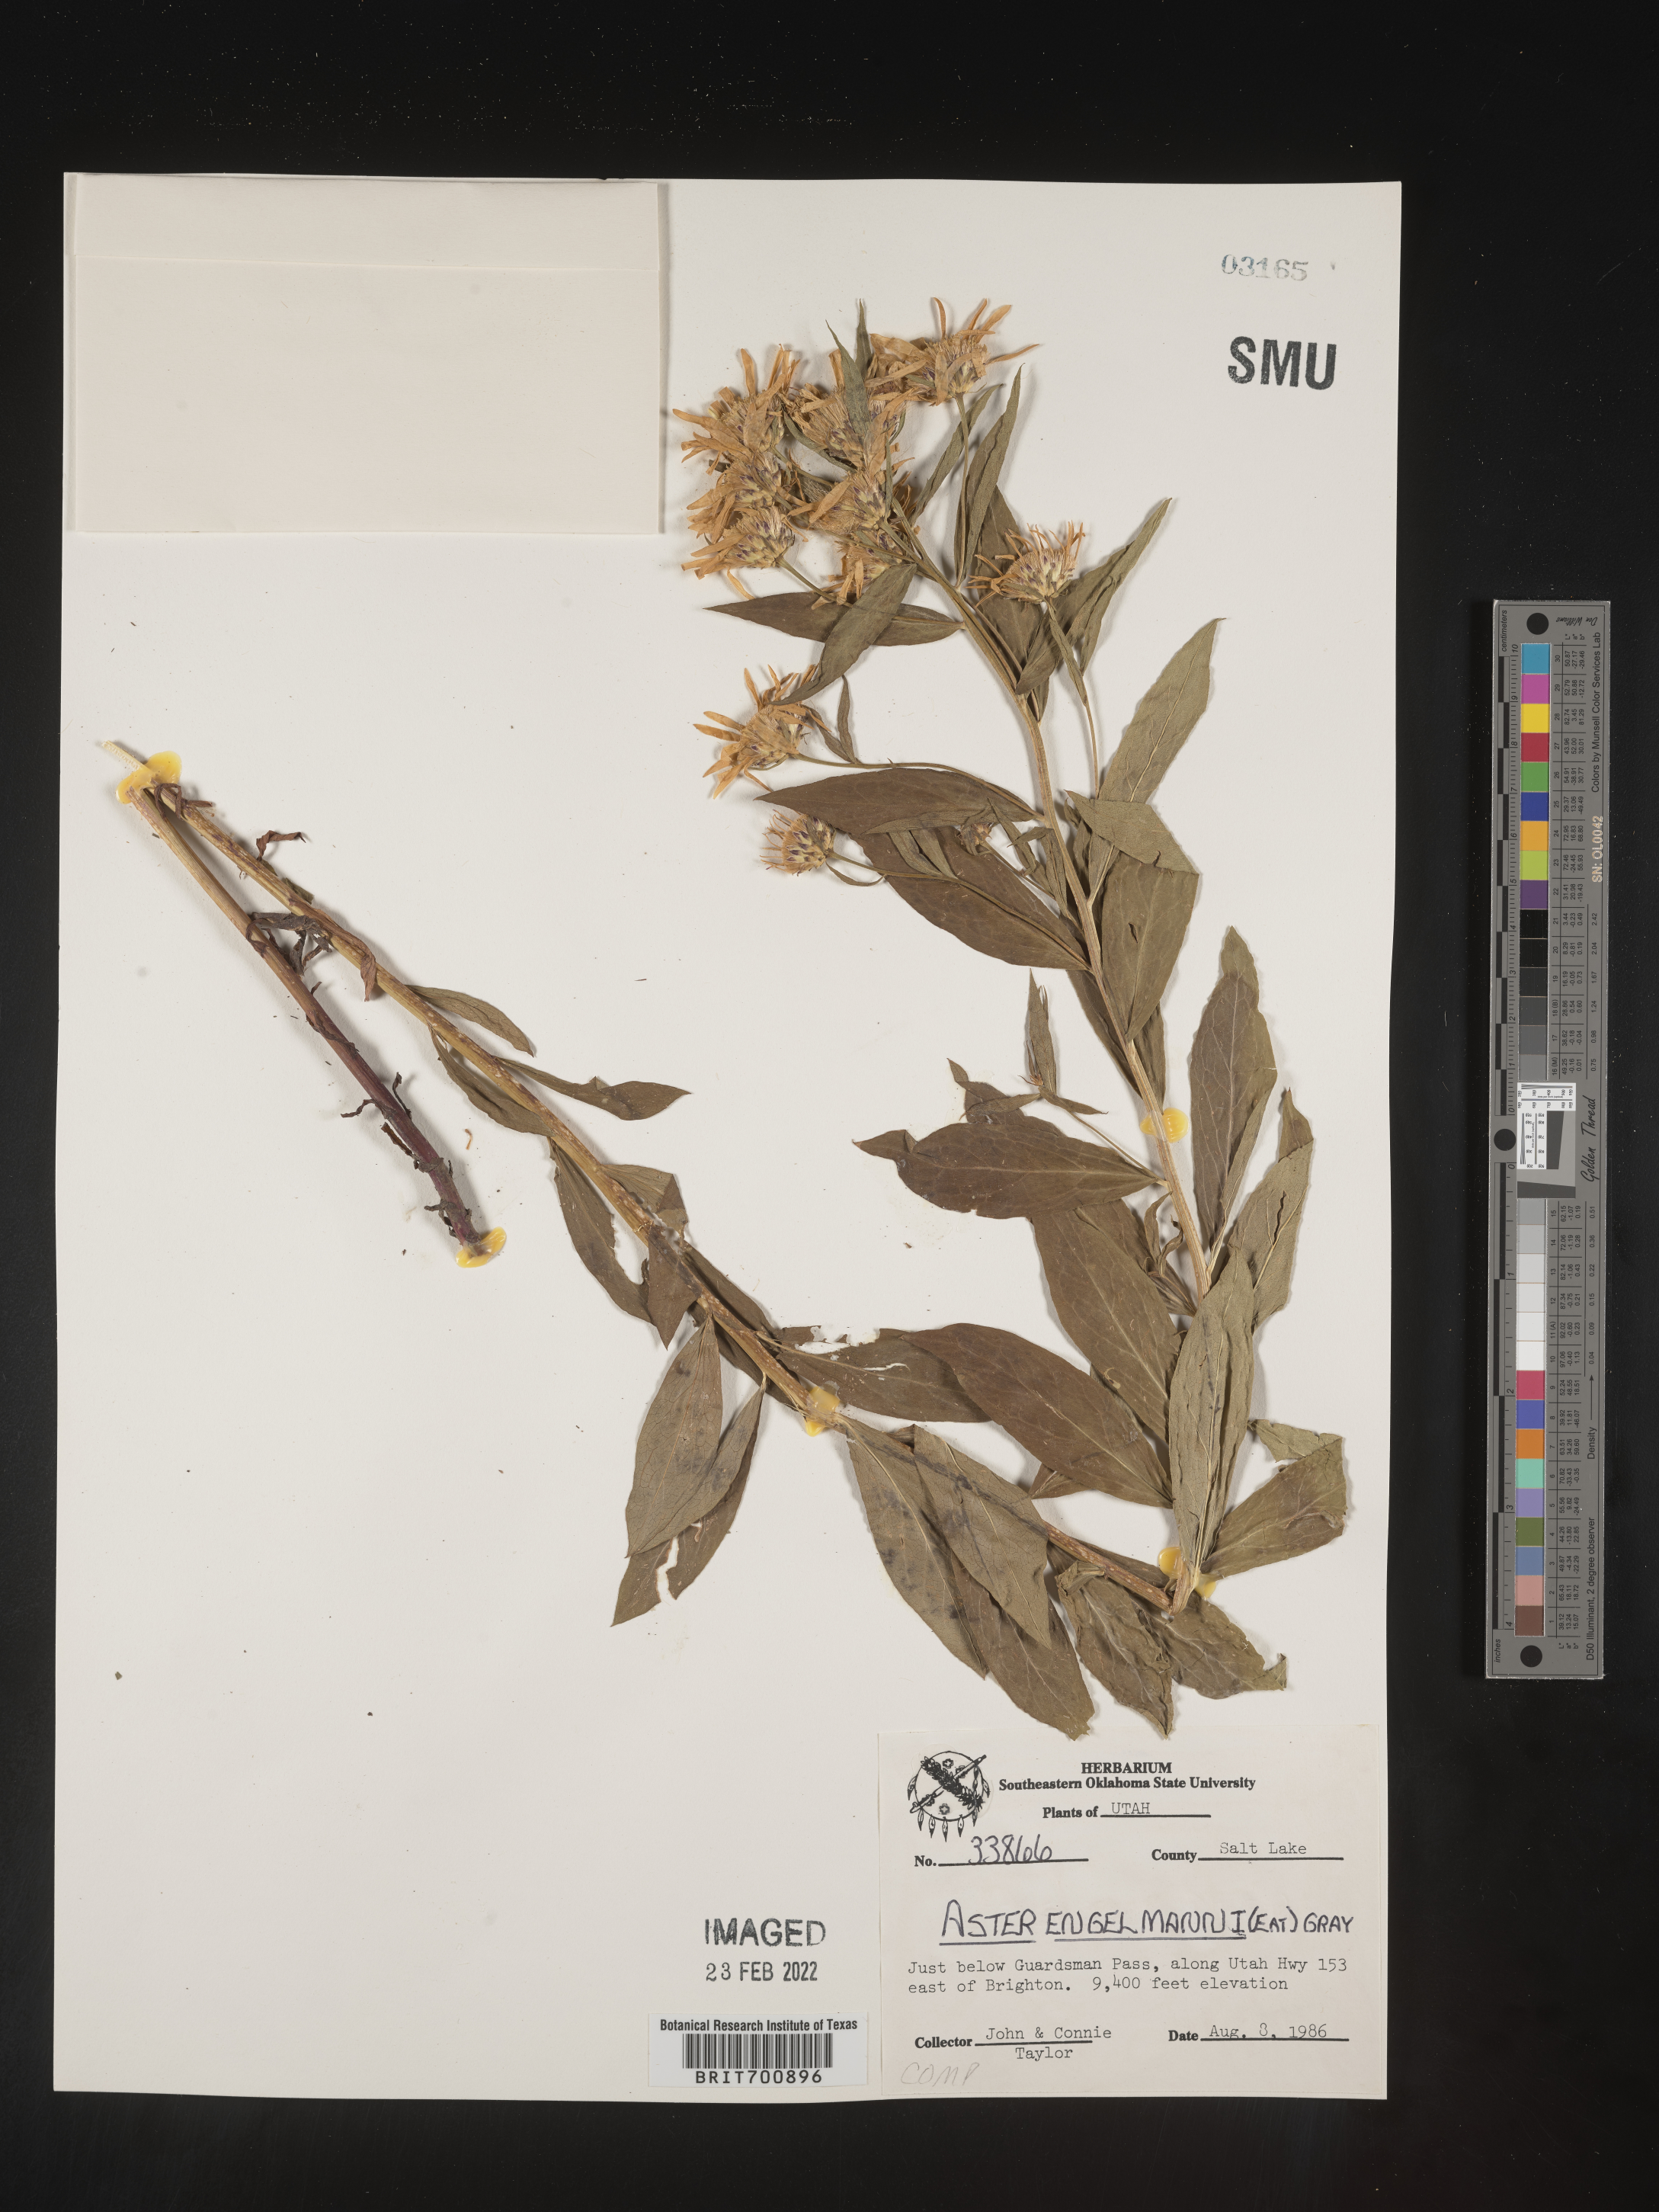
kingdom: Plantae
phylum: Tracheophyta
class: Magnoliopsida
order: Asterales
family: Asteraceae
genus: Eucephalus
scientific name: Eucephalus engelmannii
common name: Engelmann's aster
